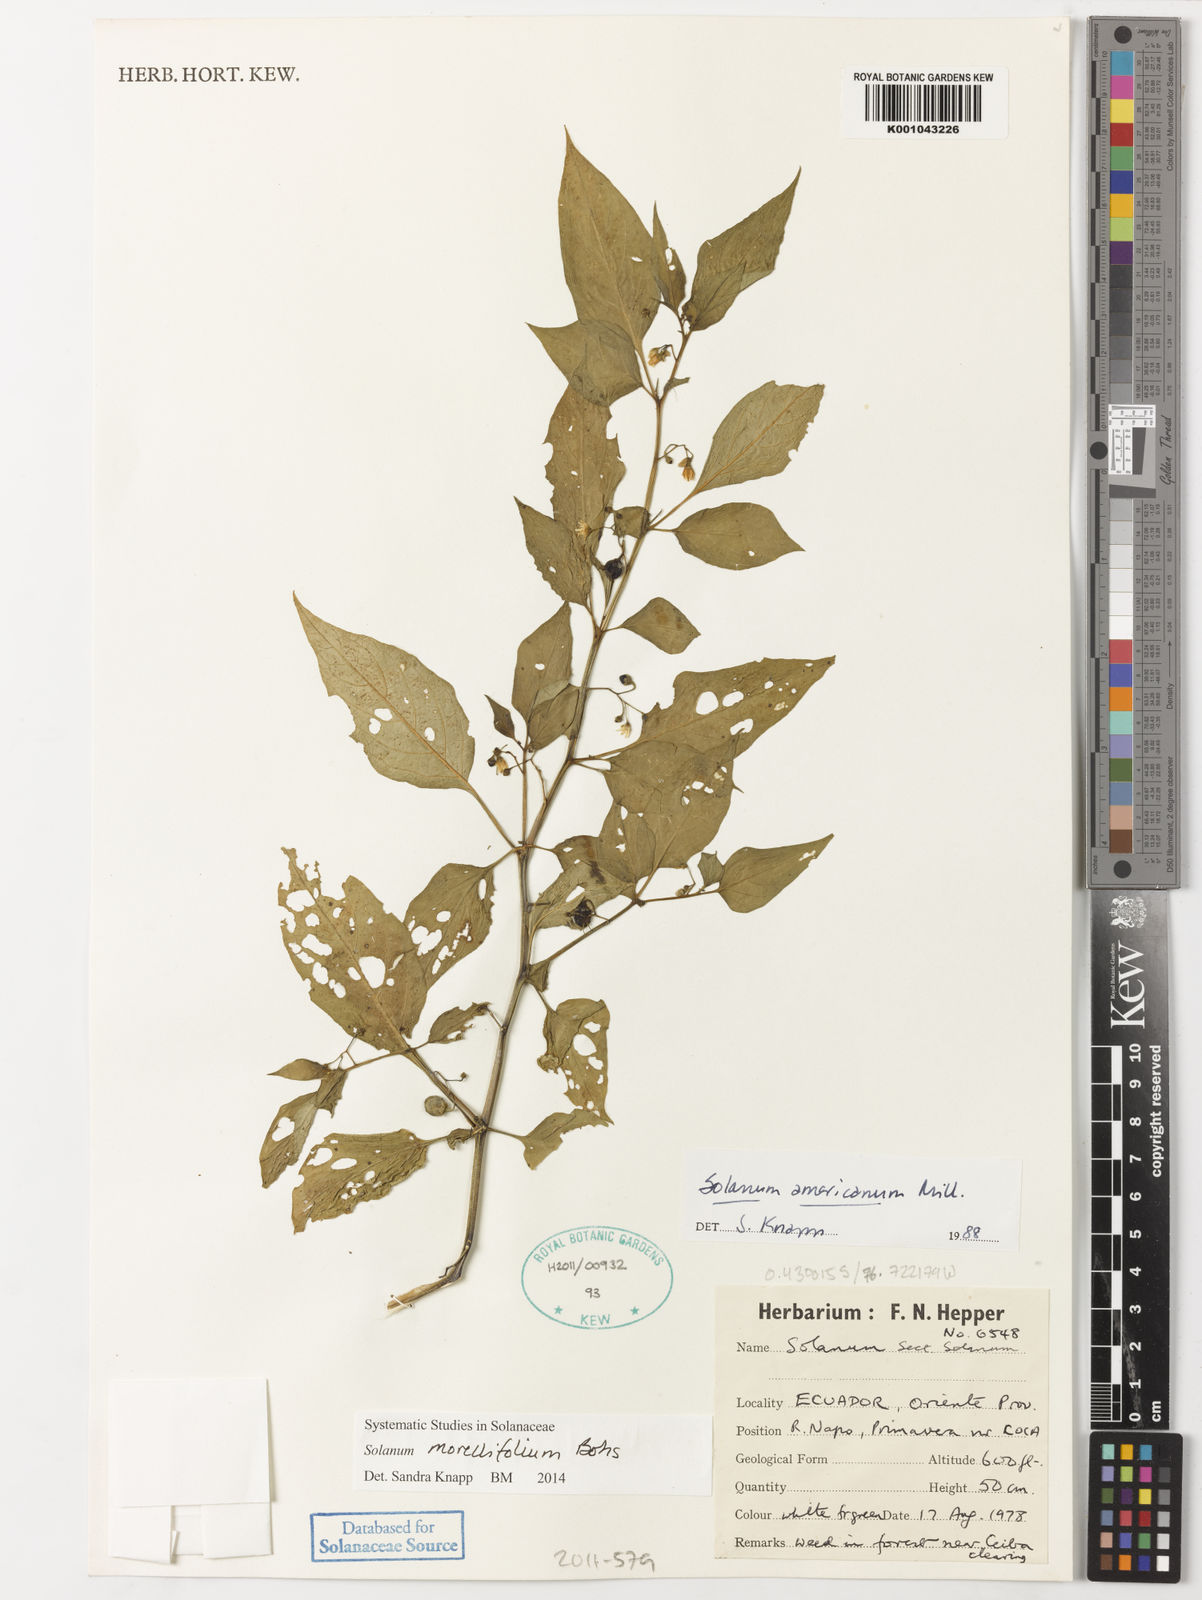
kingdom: Plantae
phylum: Tracheophyta
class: Magnoliopsida
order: Solanales
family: Solanaceae
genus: Solanum
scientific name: Solanum morellifolium
